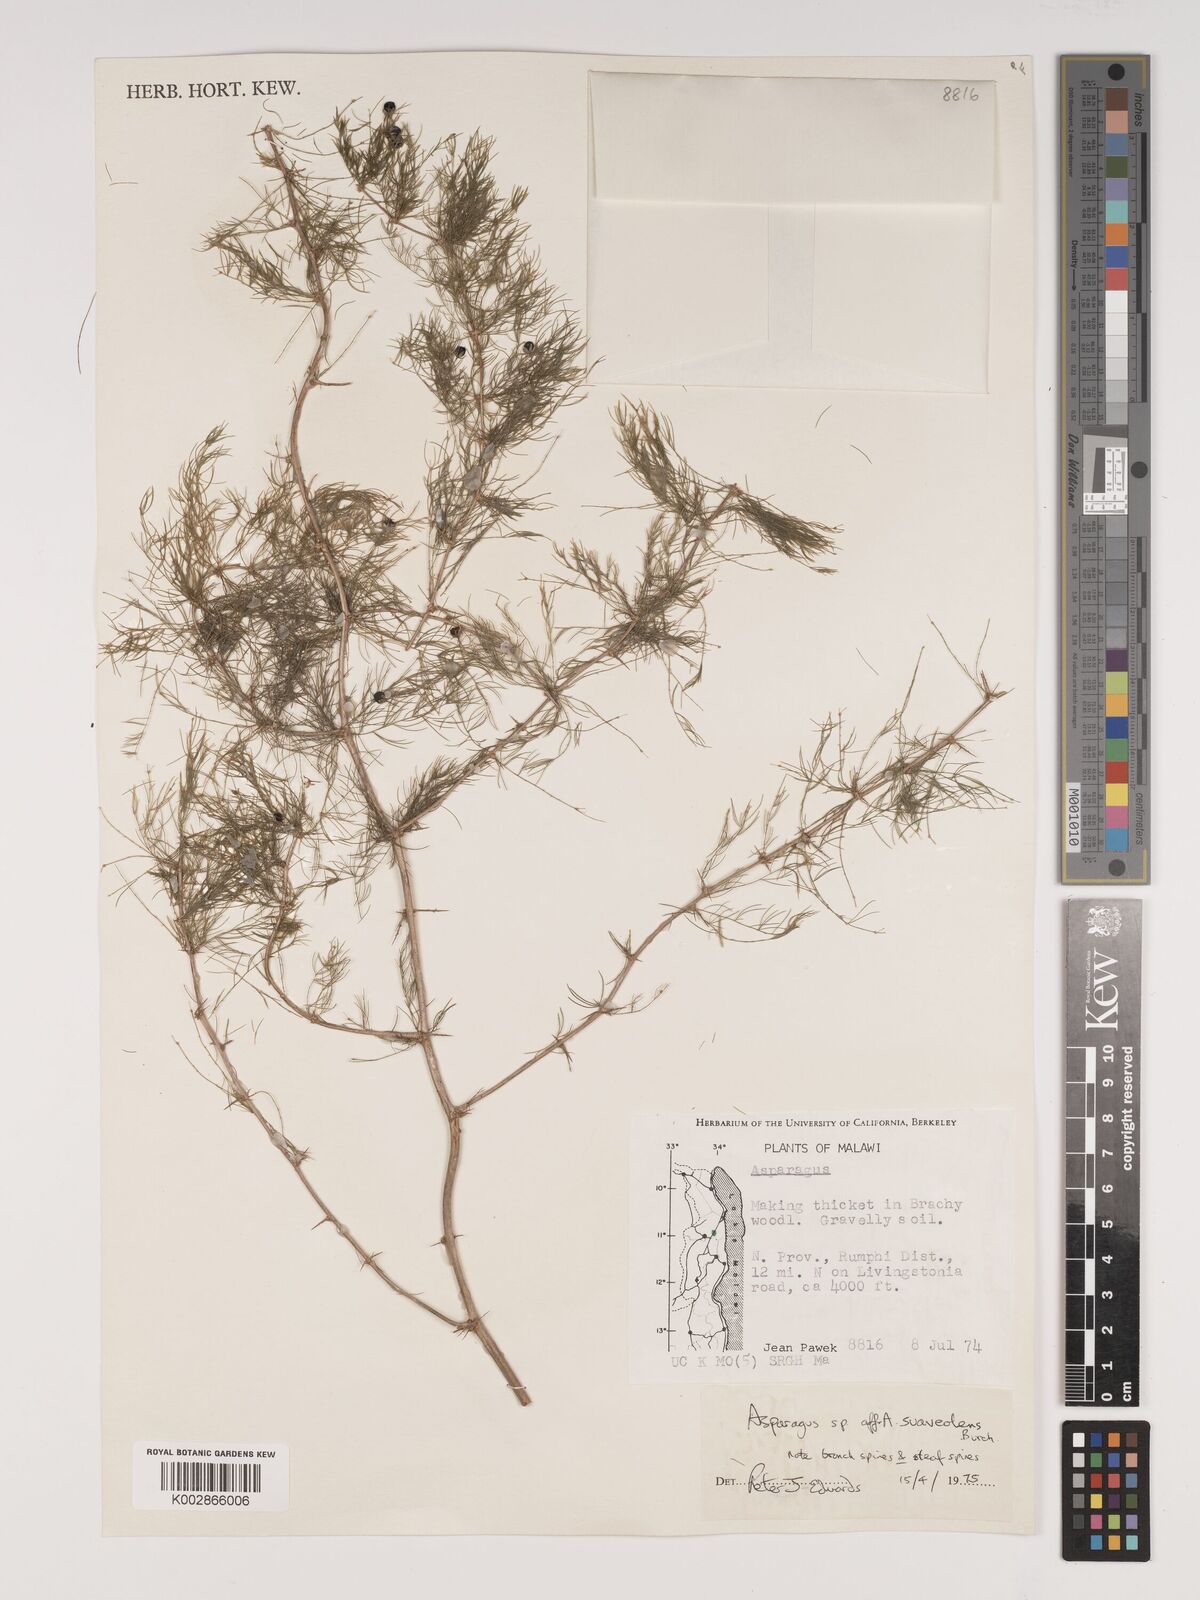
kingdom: Plantae
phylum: Tracheophyta
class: Liliopsida
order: Asparagales
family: Asparagaceae
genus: Asparagus
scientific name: Asparagus suaveolens
